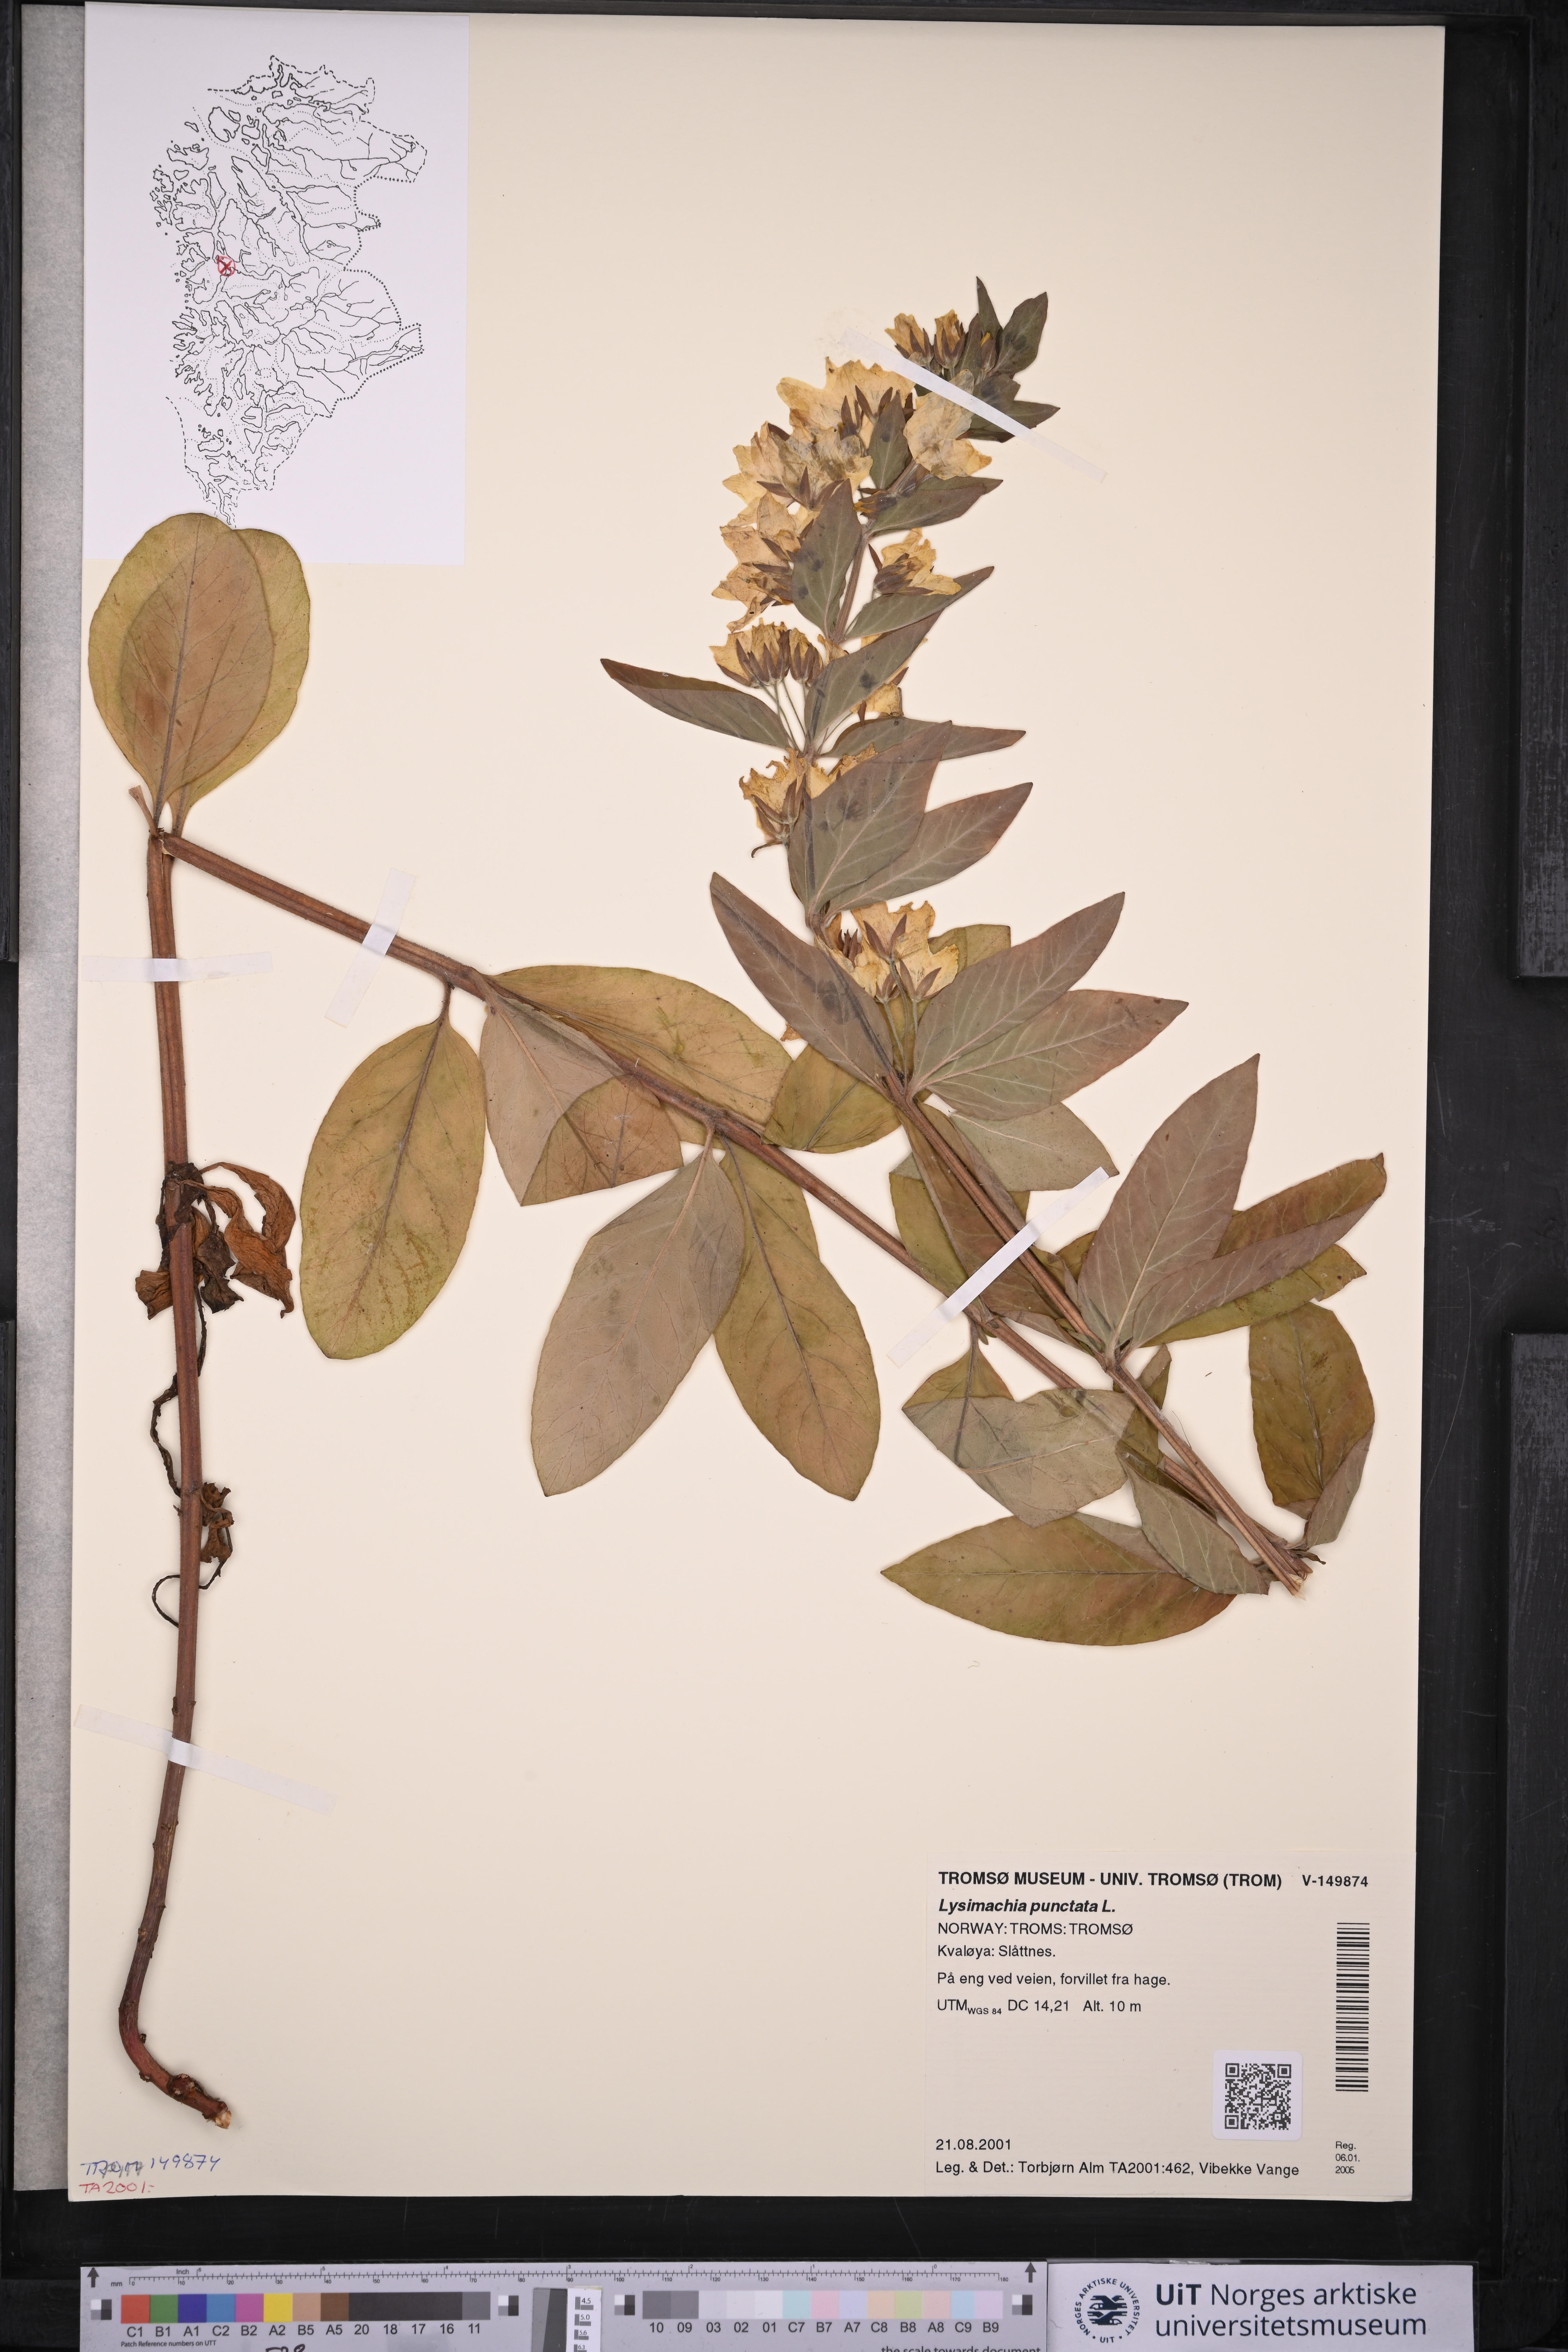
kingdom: Plantae
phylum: Tracheophyta
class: Magnoliopsida
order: Ericales
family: Primulaceae
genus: Lysimachia
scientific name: Lysimachia punctata
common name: Dotted loosestrife
